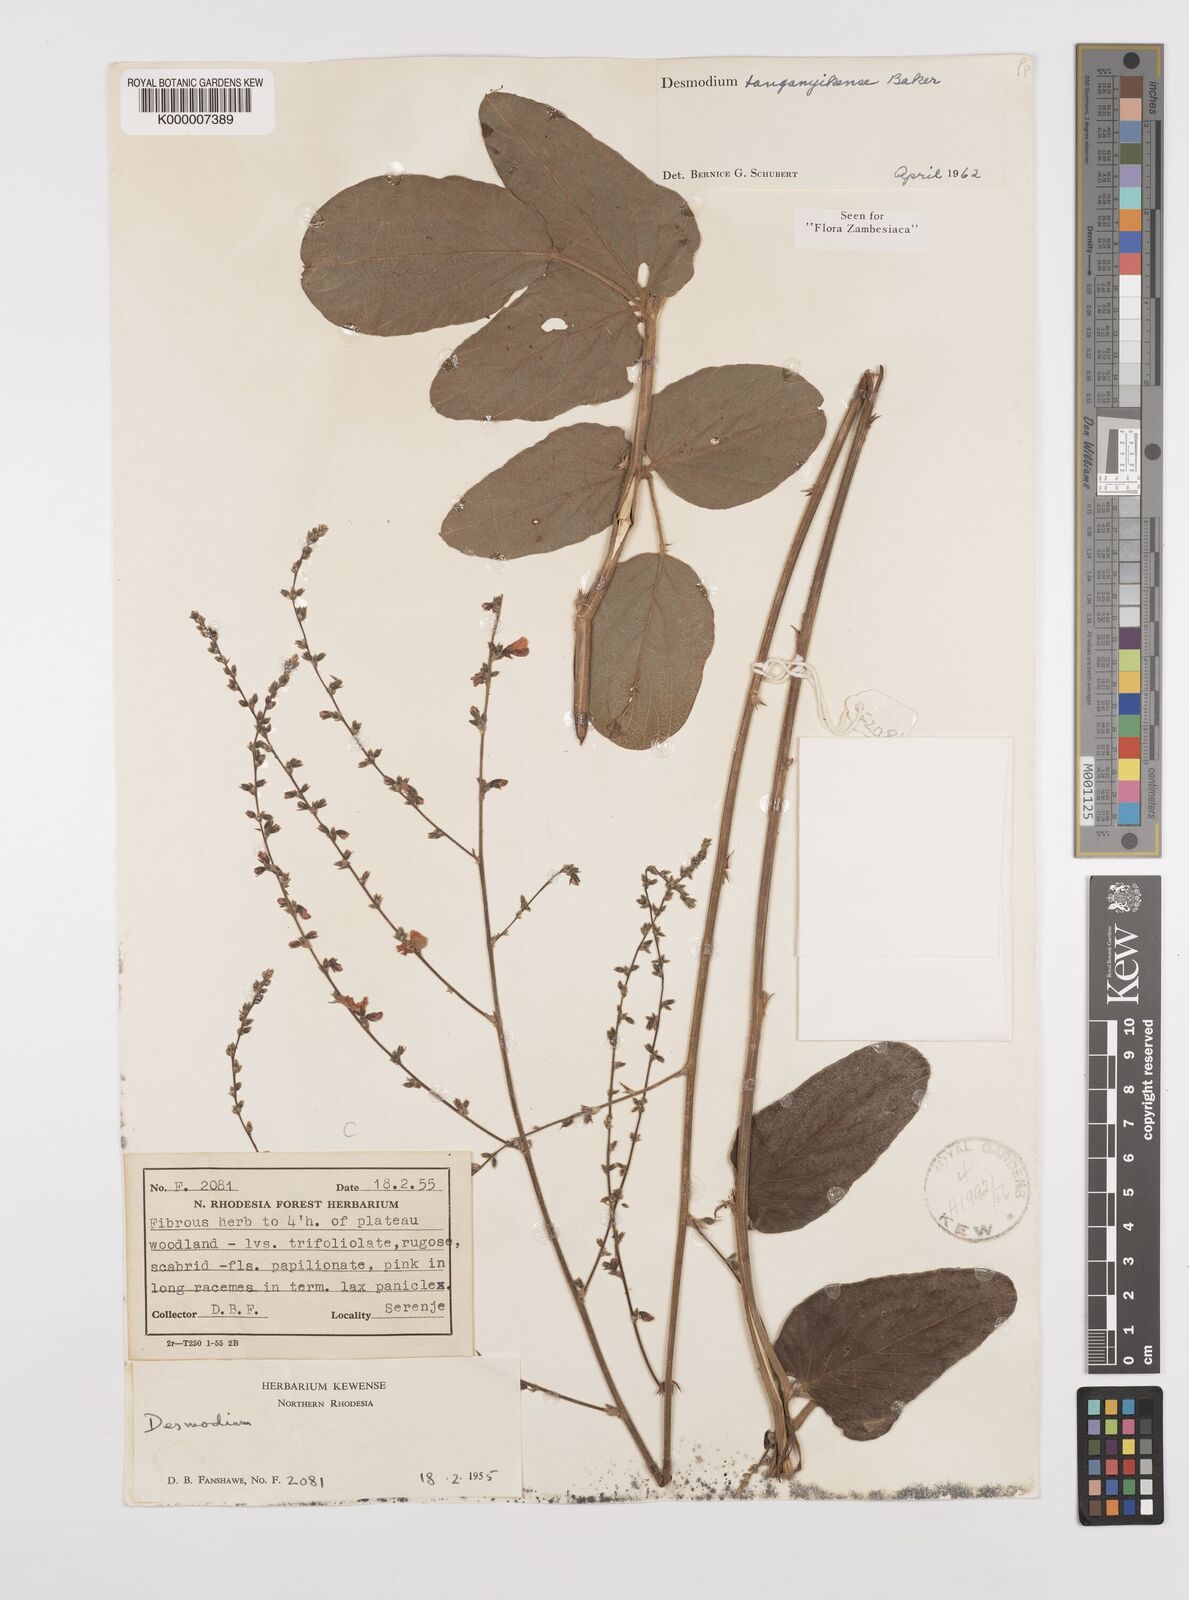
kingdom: Plantae
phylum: Tracheophyta
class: Magnoliopsida
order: Fabales
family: Fabaceae
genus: Pleurolobus
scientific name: Pleurolobus tanganyikensis
